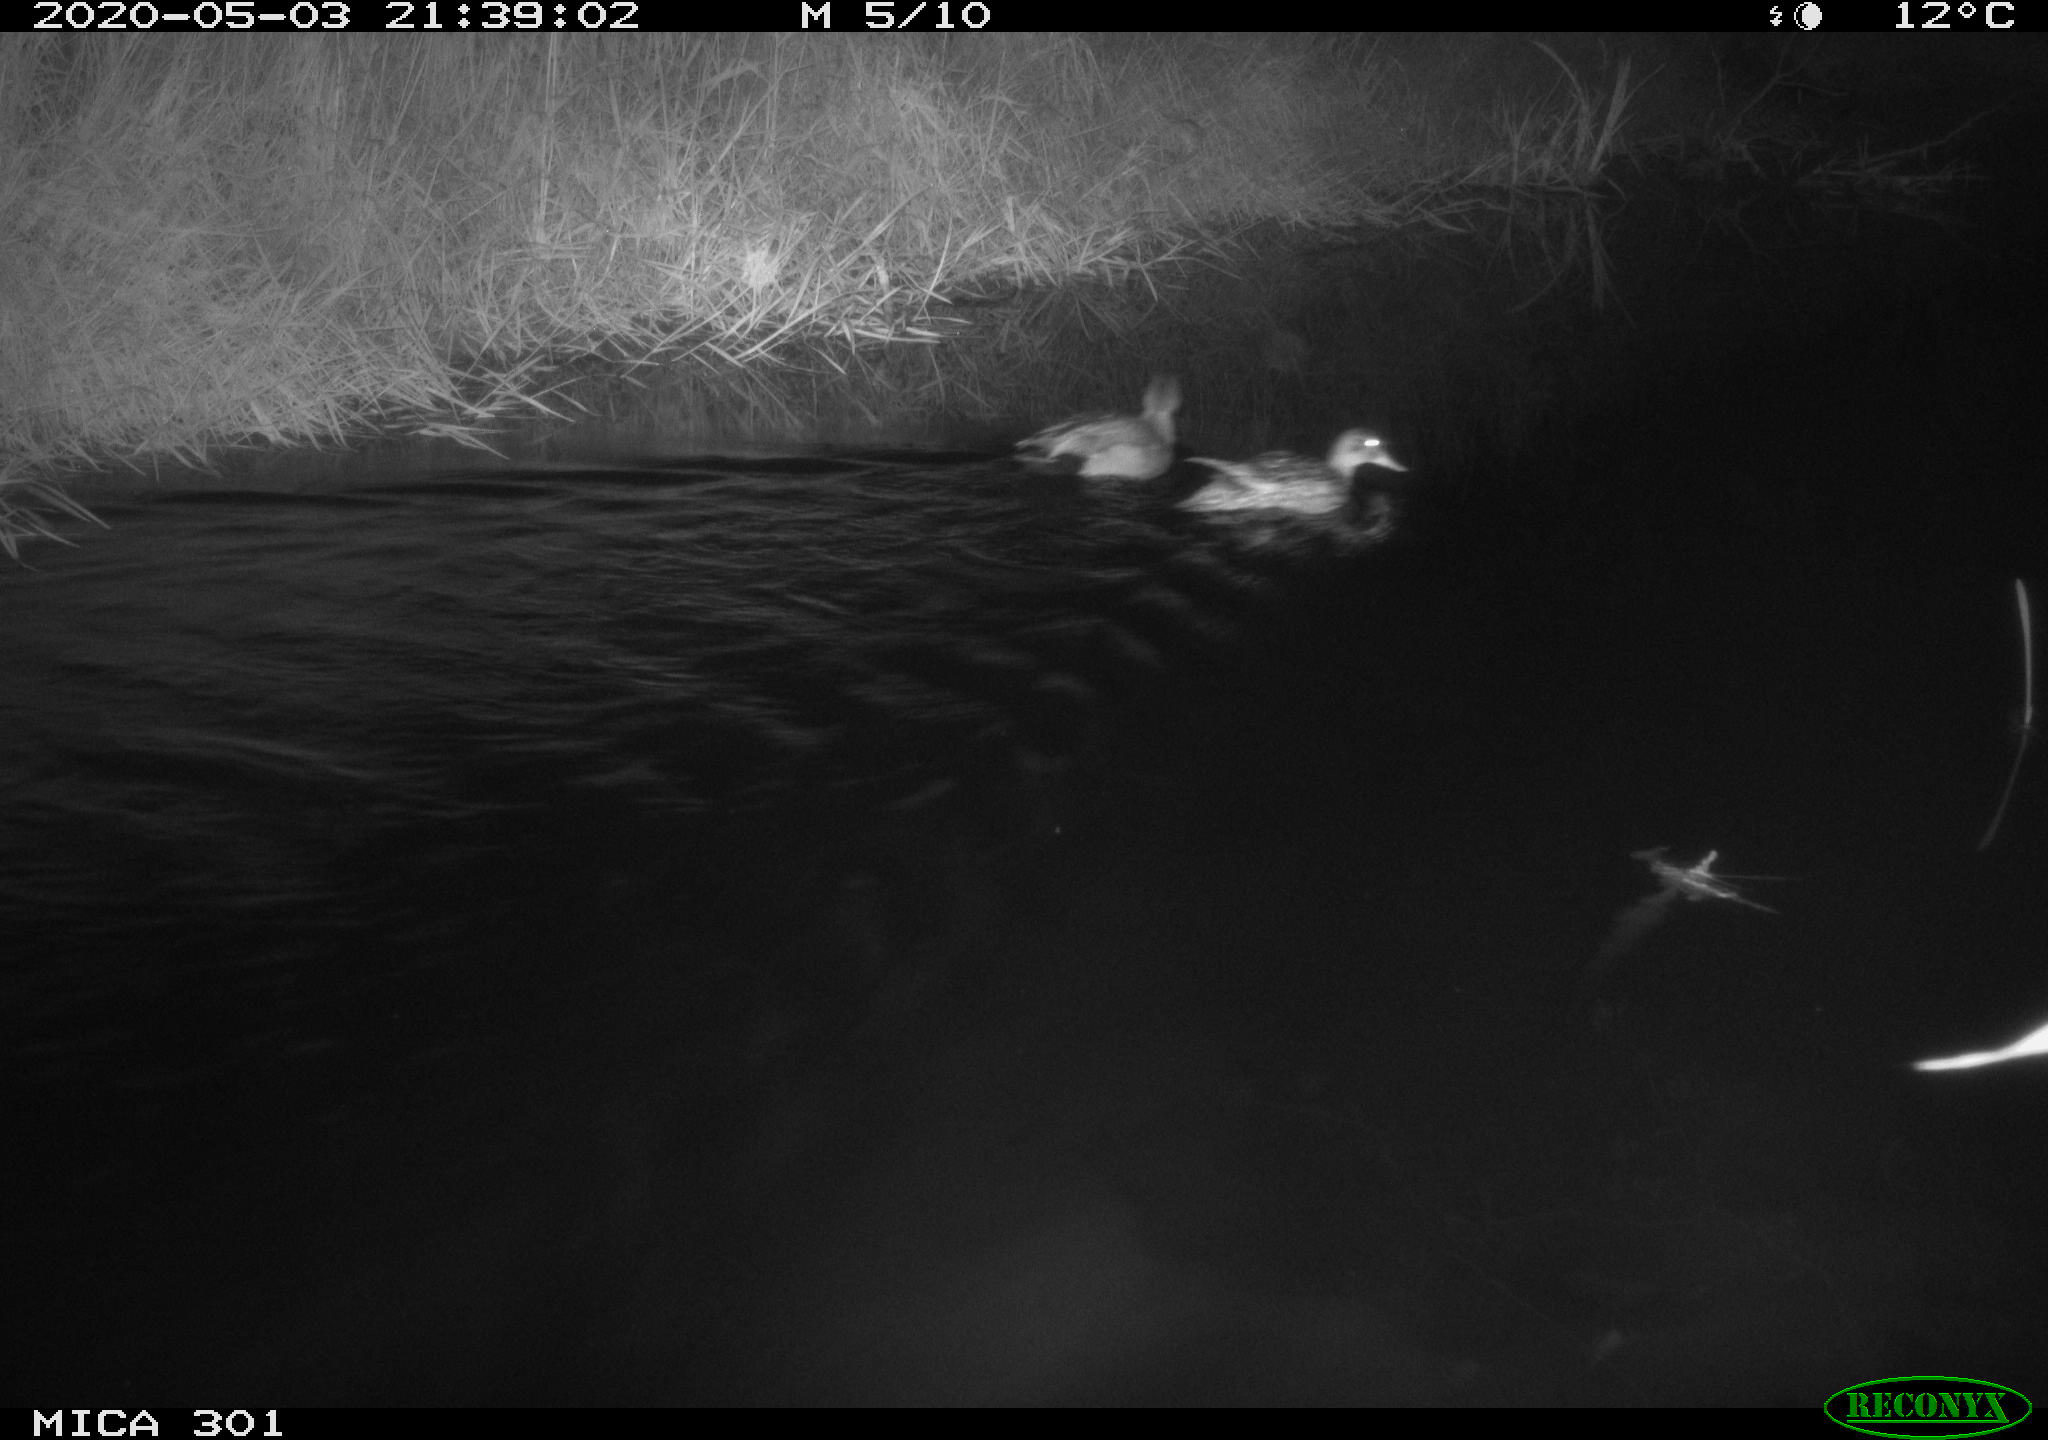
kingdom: Animalia
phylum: Chordata
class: Aves
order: Anseriformes
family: Anatidae
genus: Mareca
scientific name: Mareca strepera
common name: Gadwall
